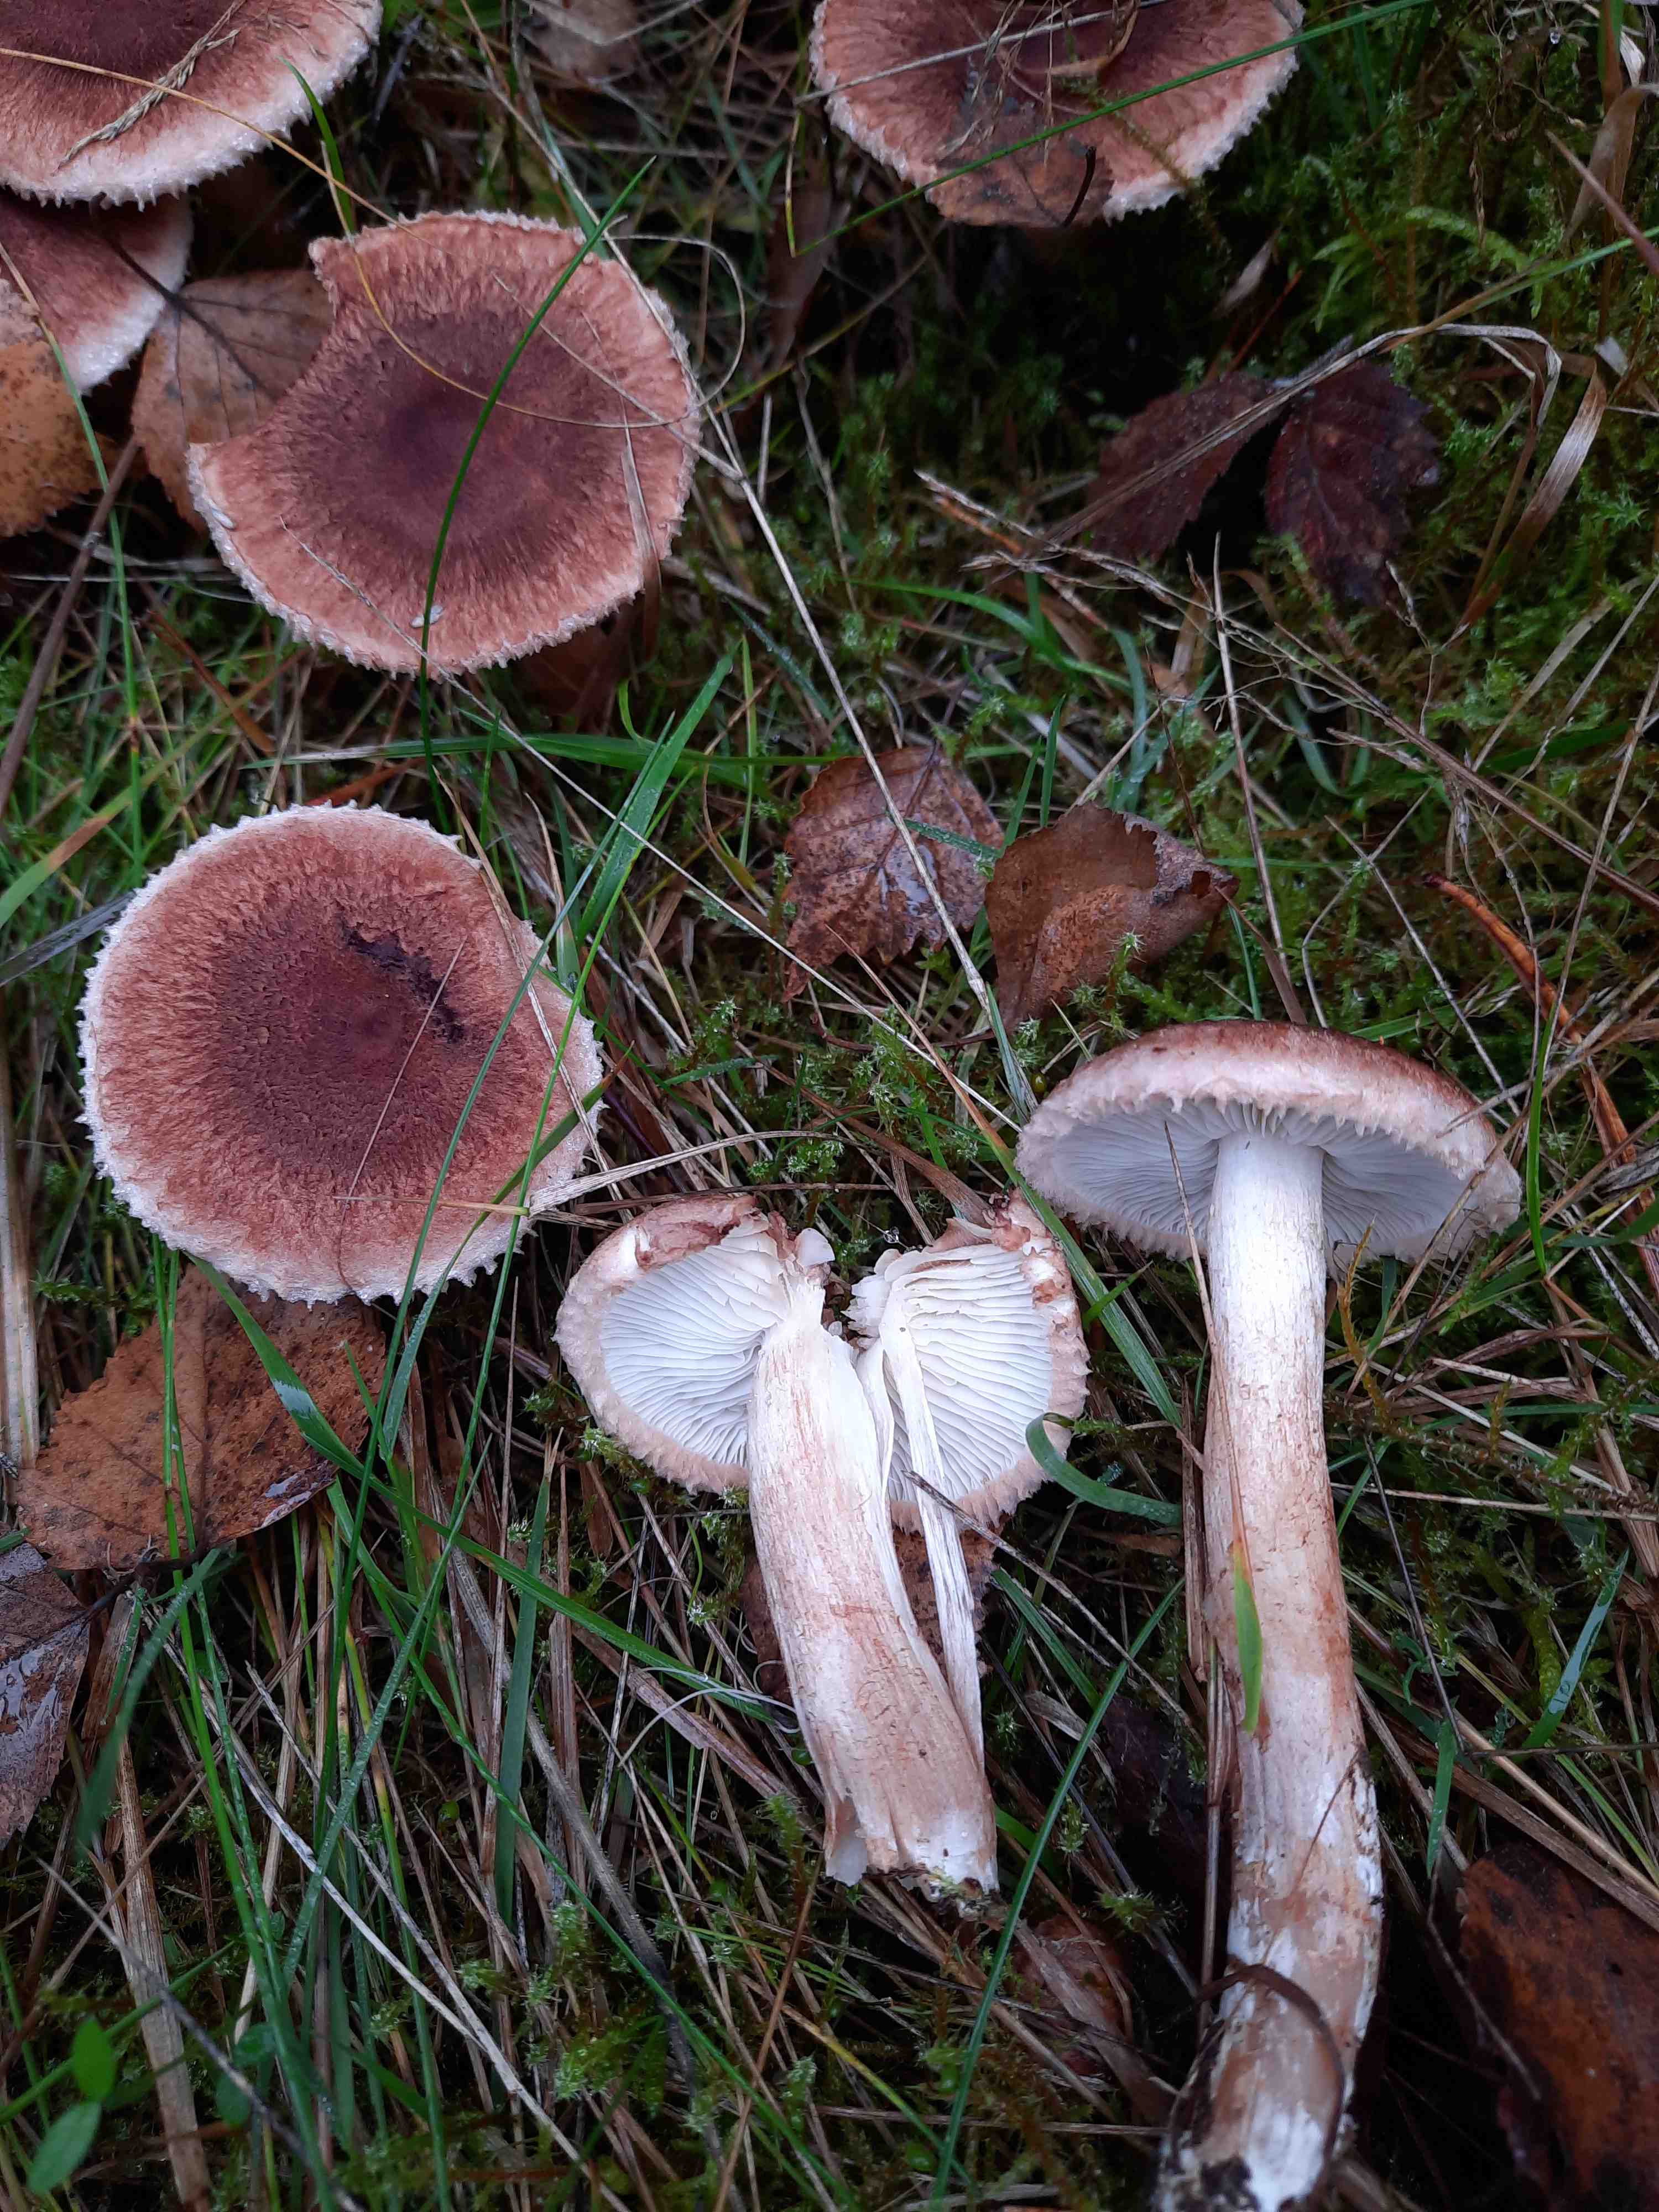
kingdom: Fungi
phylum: Basidiomycota
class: Agaricomycetes
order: Agaricales
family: Tricholomataceae
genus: Tricholoma
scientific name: Tricholoma vaccinum
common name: ko-ridderhat
